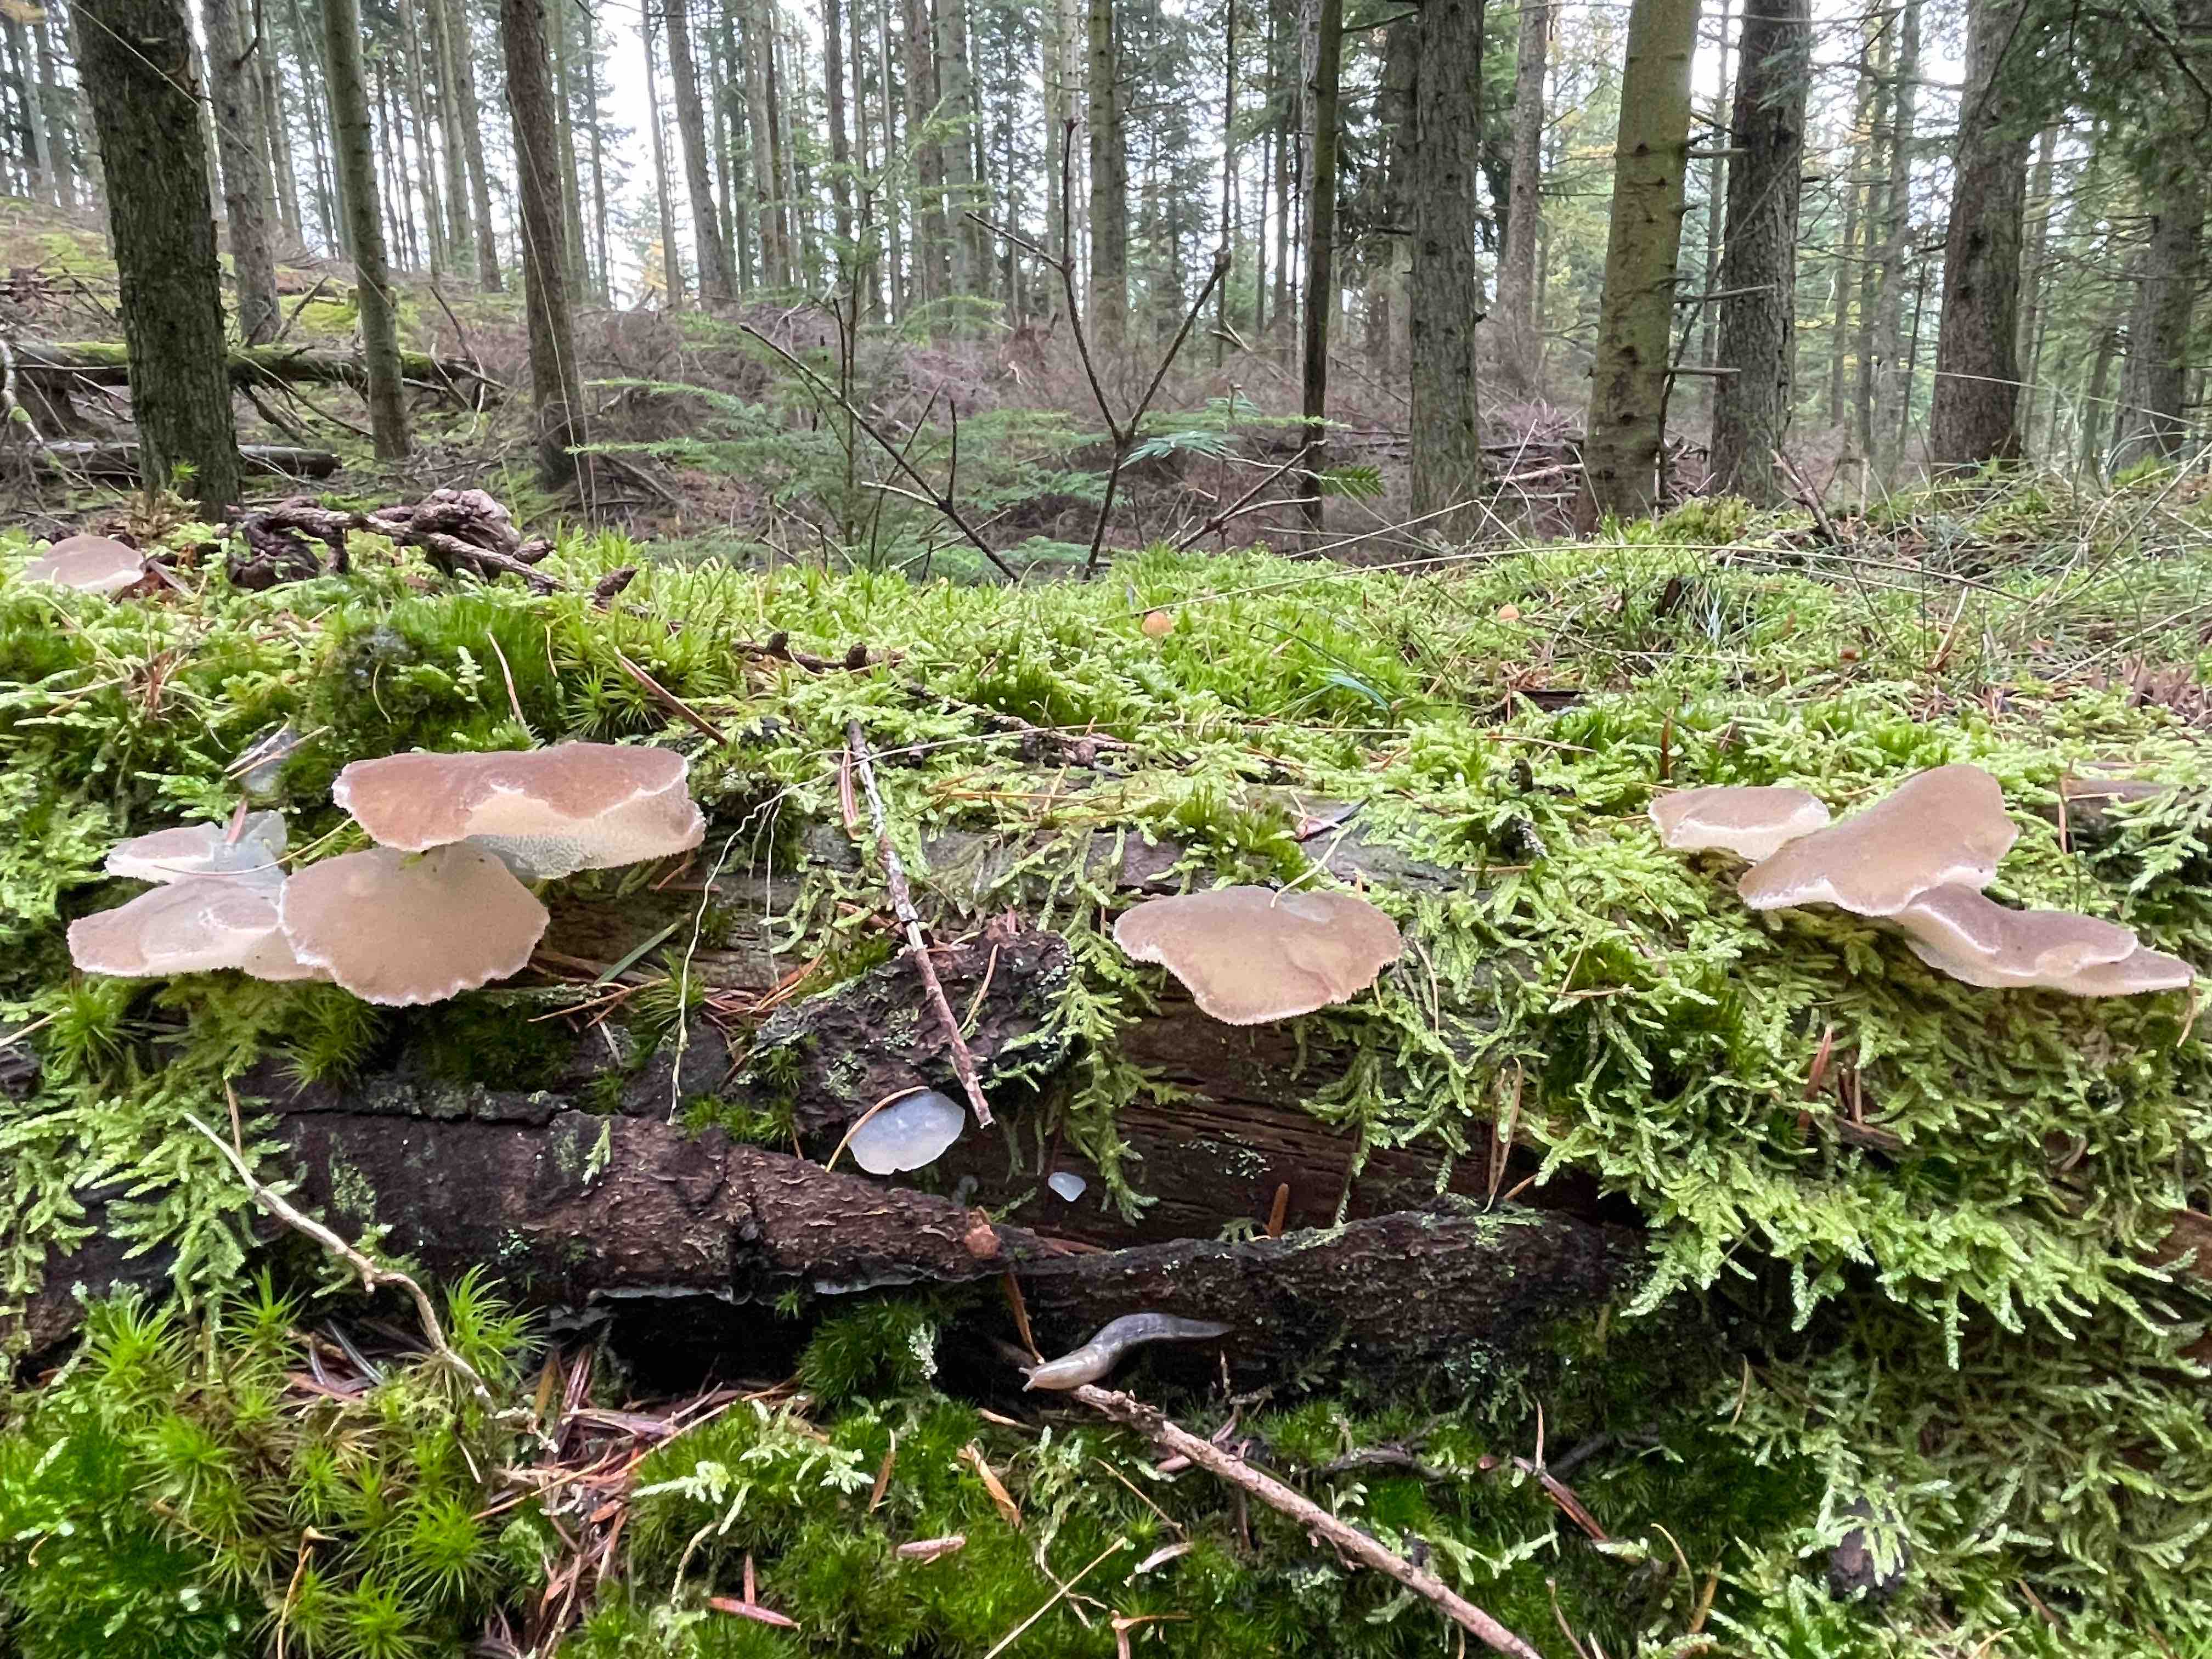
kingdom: Fungi
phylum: Basidiomycota
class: Agaricomycetes
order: Auriculariales
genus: Pseudohydnum
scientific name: Pseudohydnum gelatinosum
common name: bævretand
